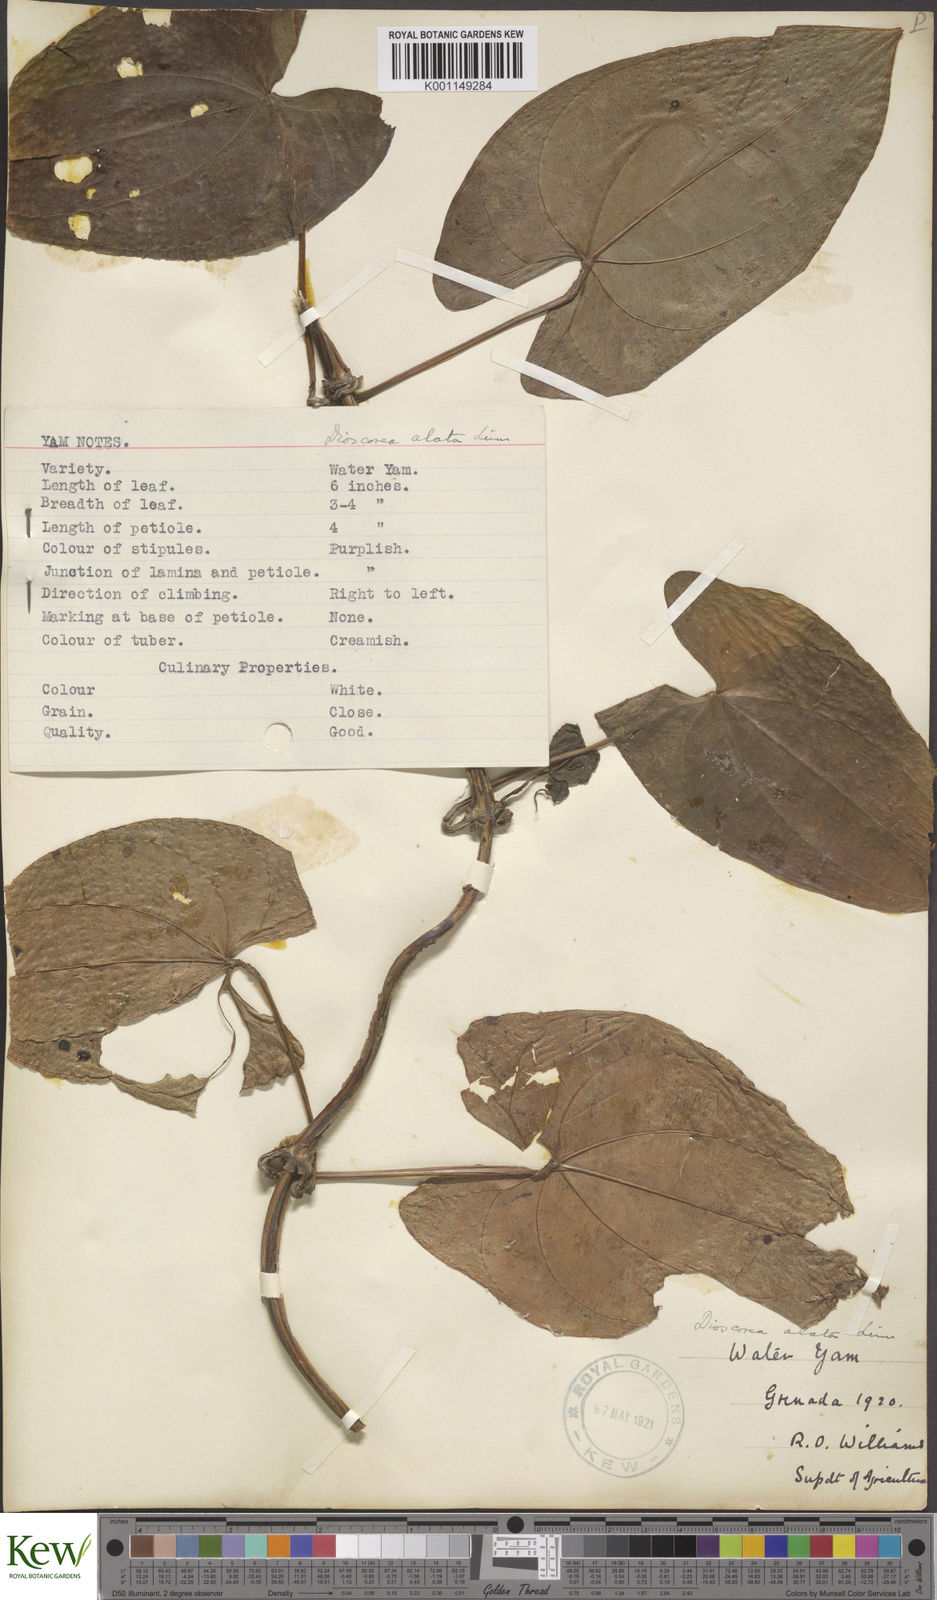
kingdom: Plantae
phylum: Tracheophyta
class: Liliopsida
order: Dioscoreales
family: Dioscoreaceae
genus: Dioscorea
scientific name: Dioscorea alata
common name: Water yam
